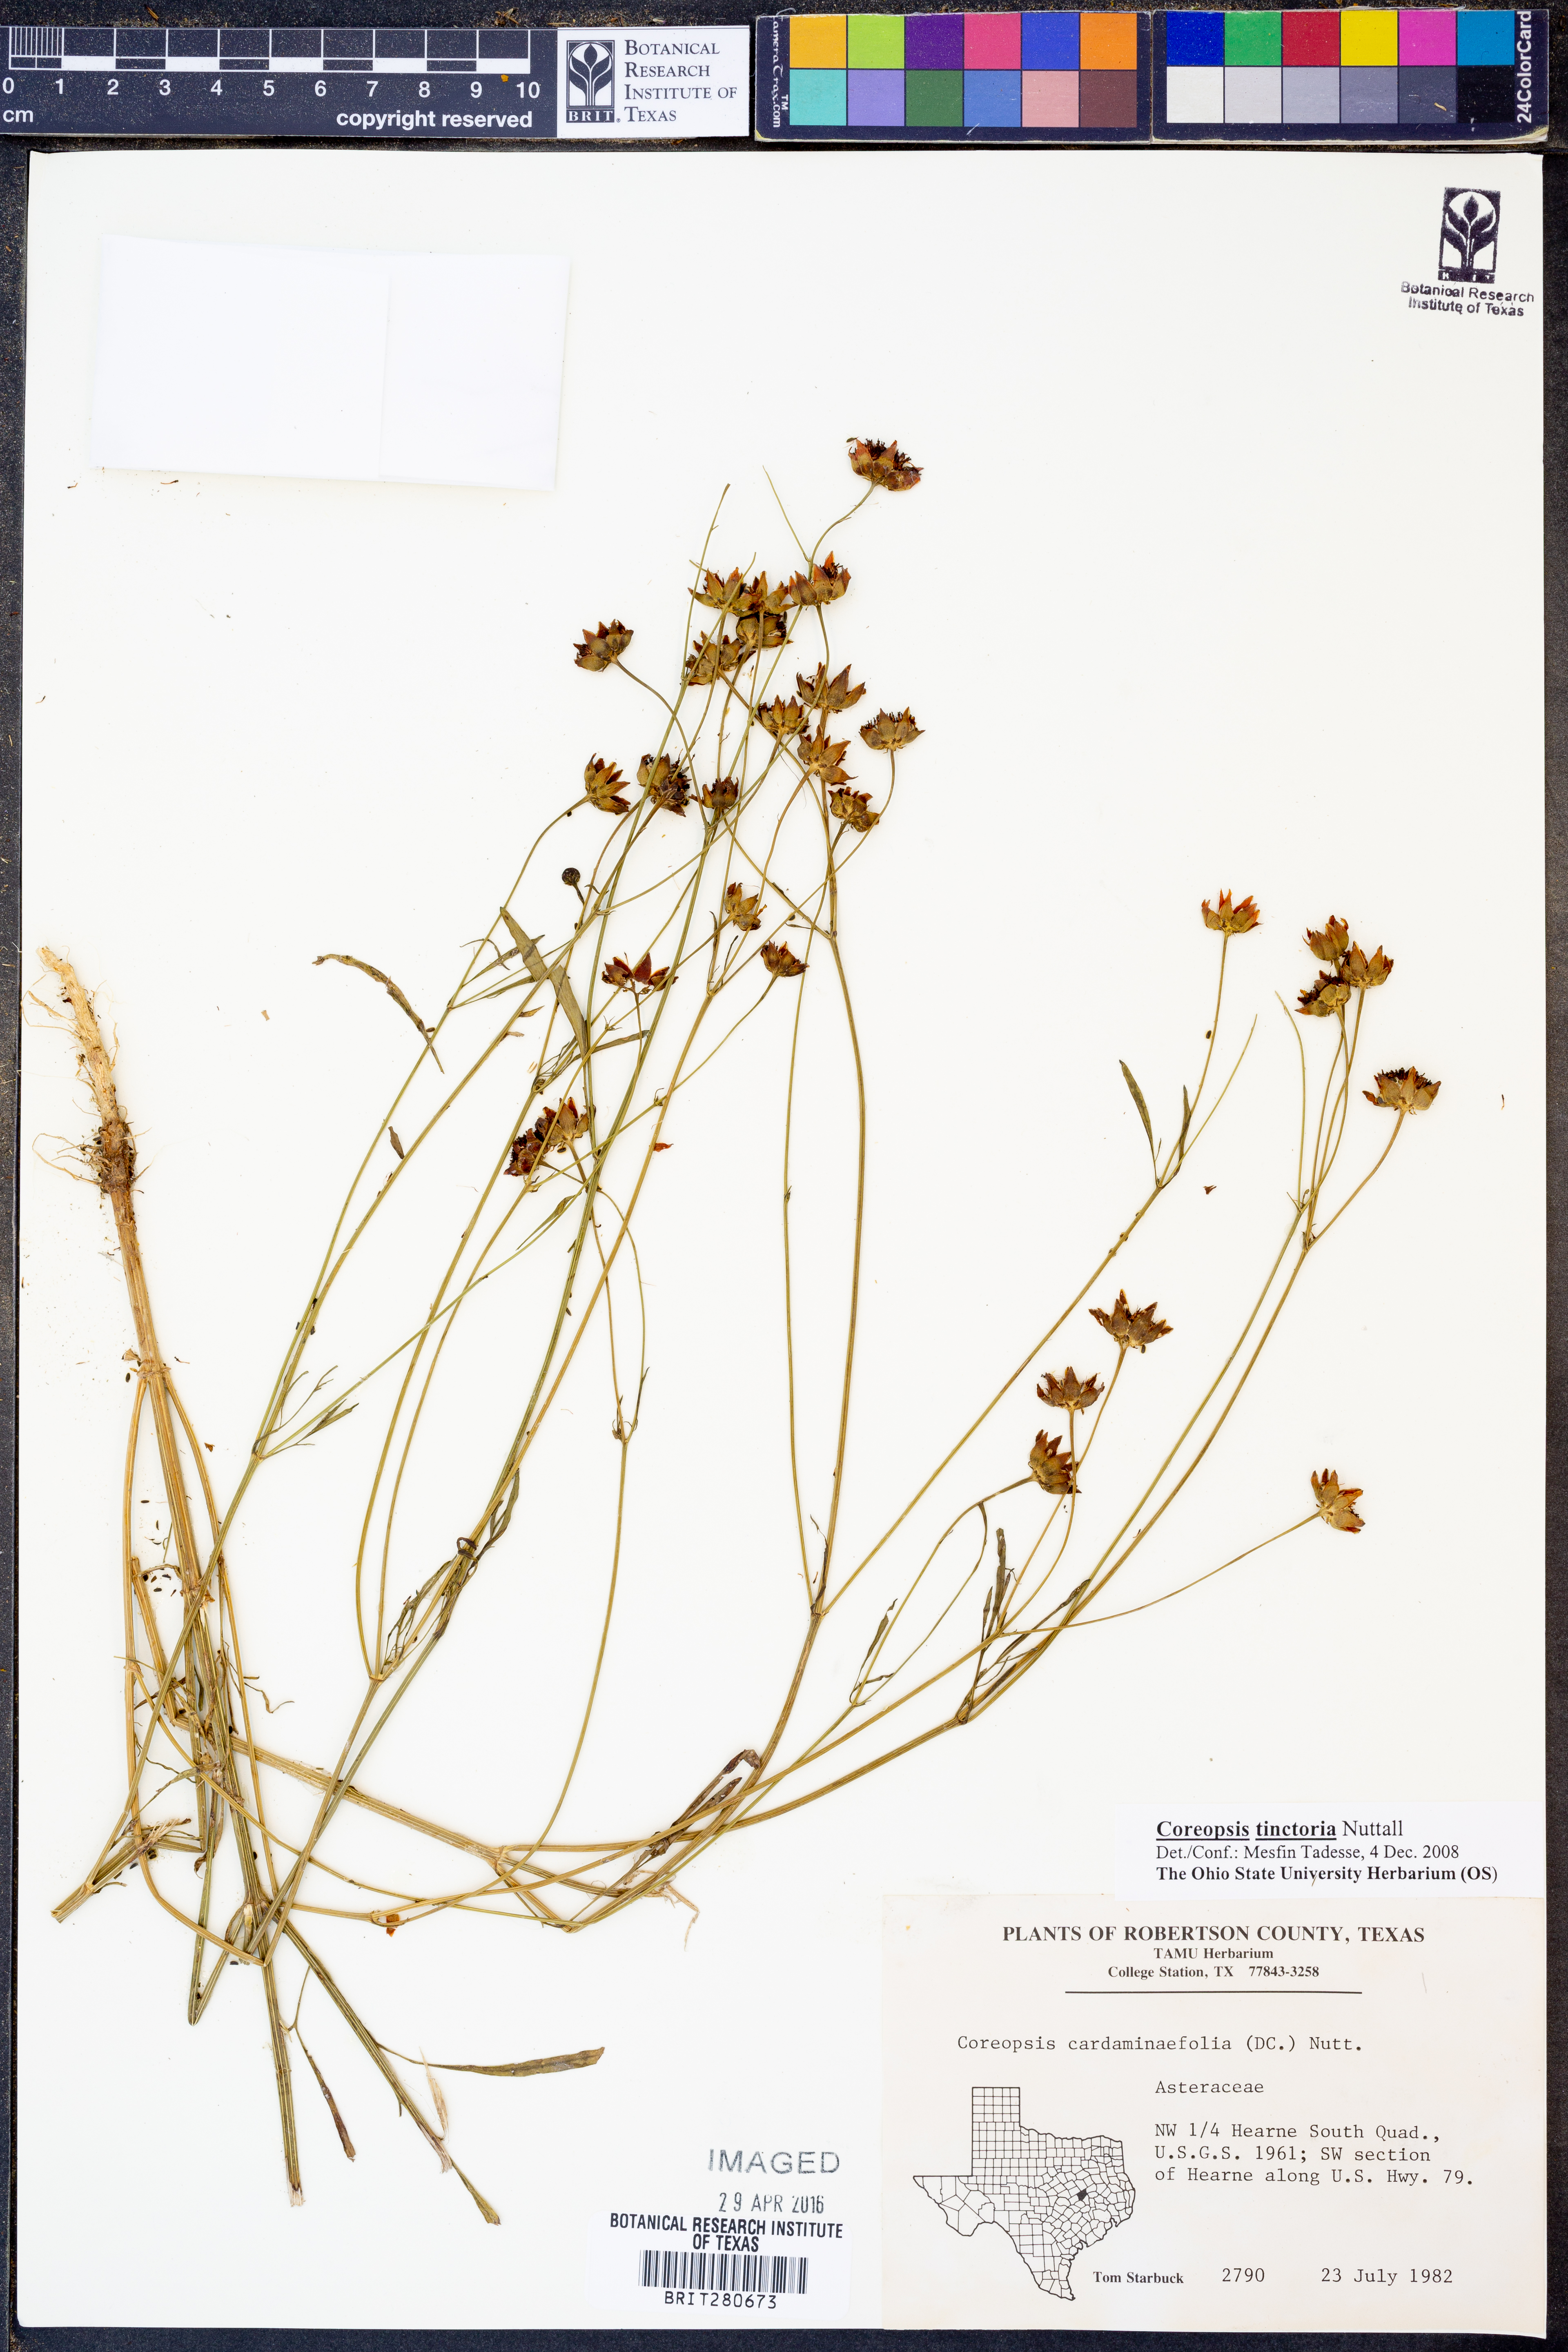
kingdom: Plantae
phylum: Tracheophyta
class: Magnoliopsida
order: Asterales
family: Asteraceae
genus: Coreopsis
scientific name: Coreopsis tinctoria
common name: Garden tickseed
